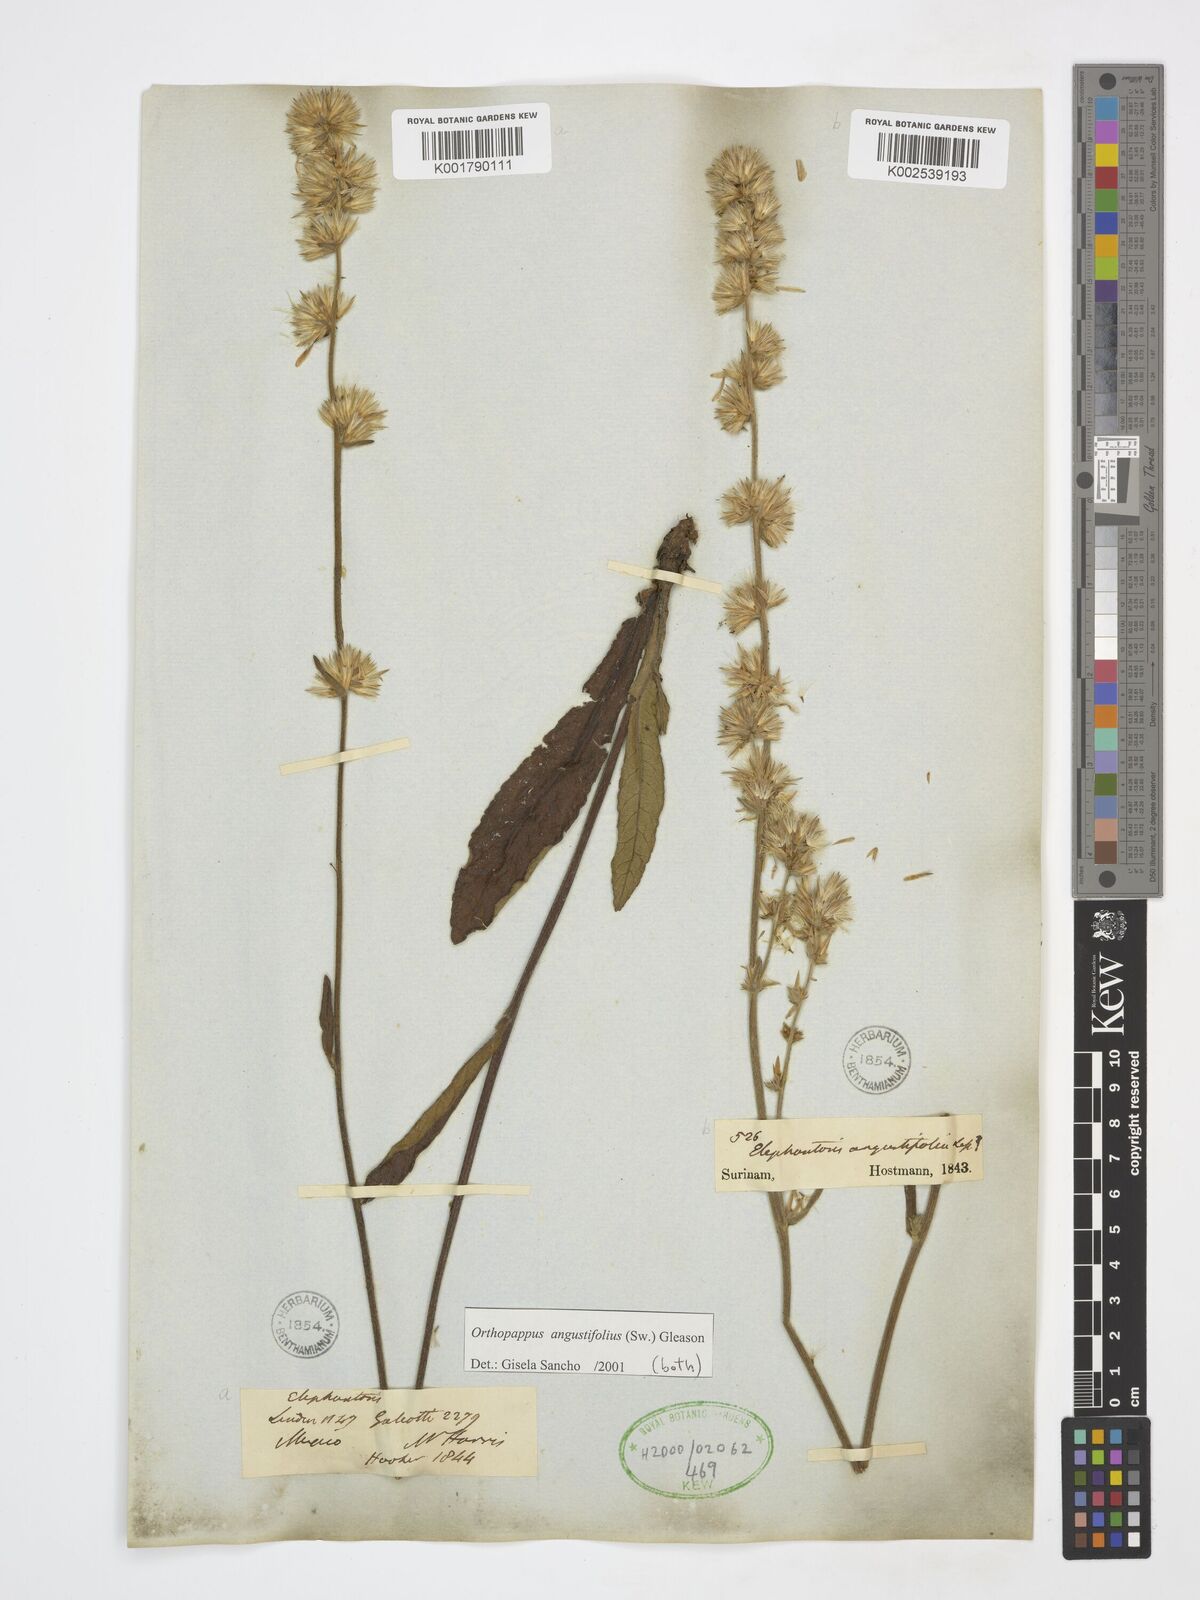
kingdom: Plantae
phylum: Tracheophyta
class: Magnoliopsida
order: Asterales
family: Asteraceae
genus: Orthopappus
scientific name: Orthopappus angustifolius
